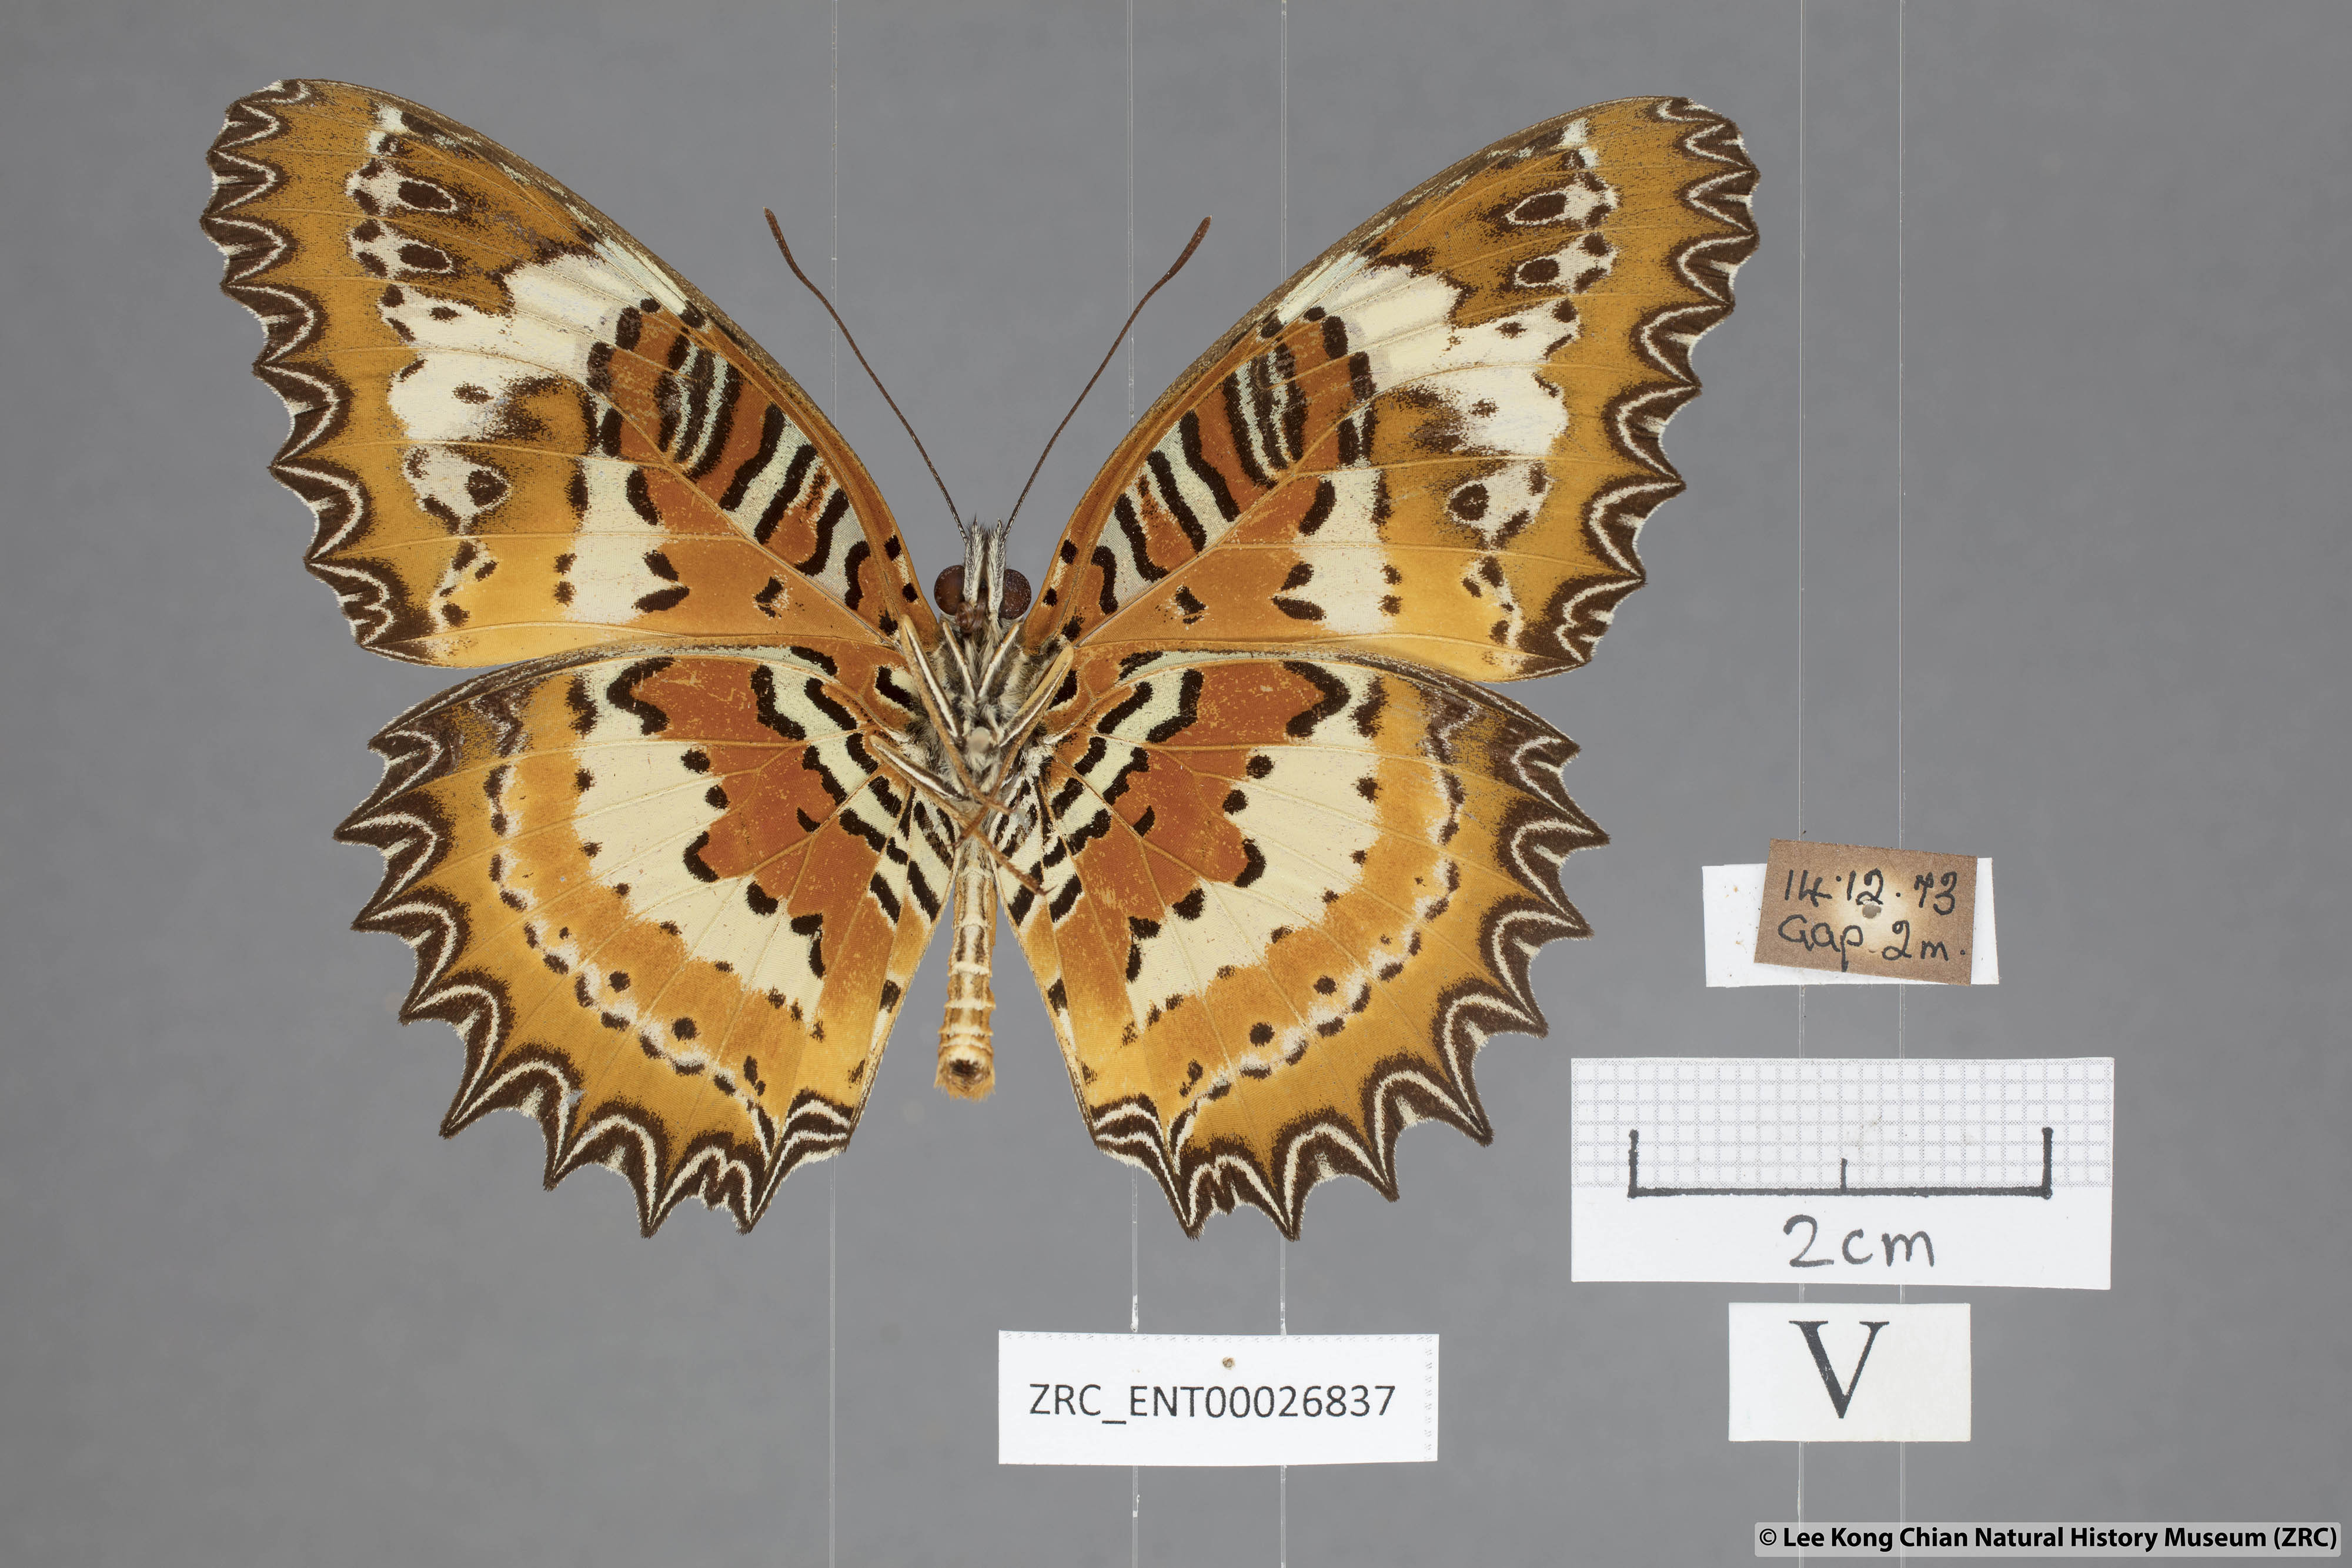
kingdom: Animalia
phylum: Arthropoda
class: Insecta
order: Lepidoptera
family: Nymphalidae
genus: Cethosia
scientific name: Cethosia penthesilea
